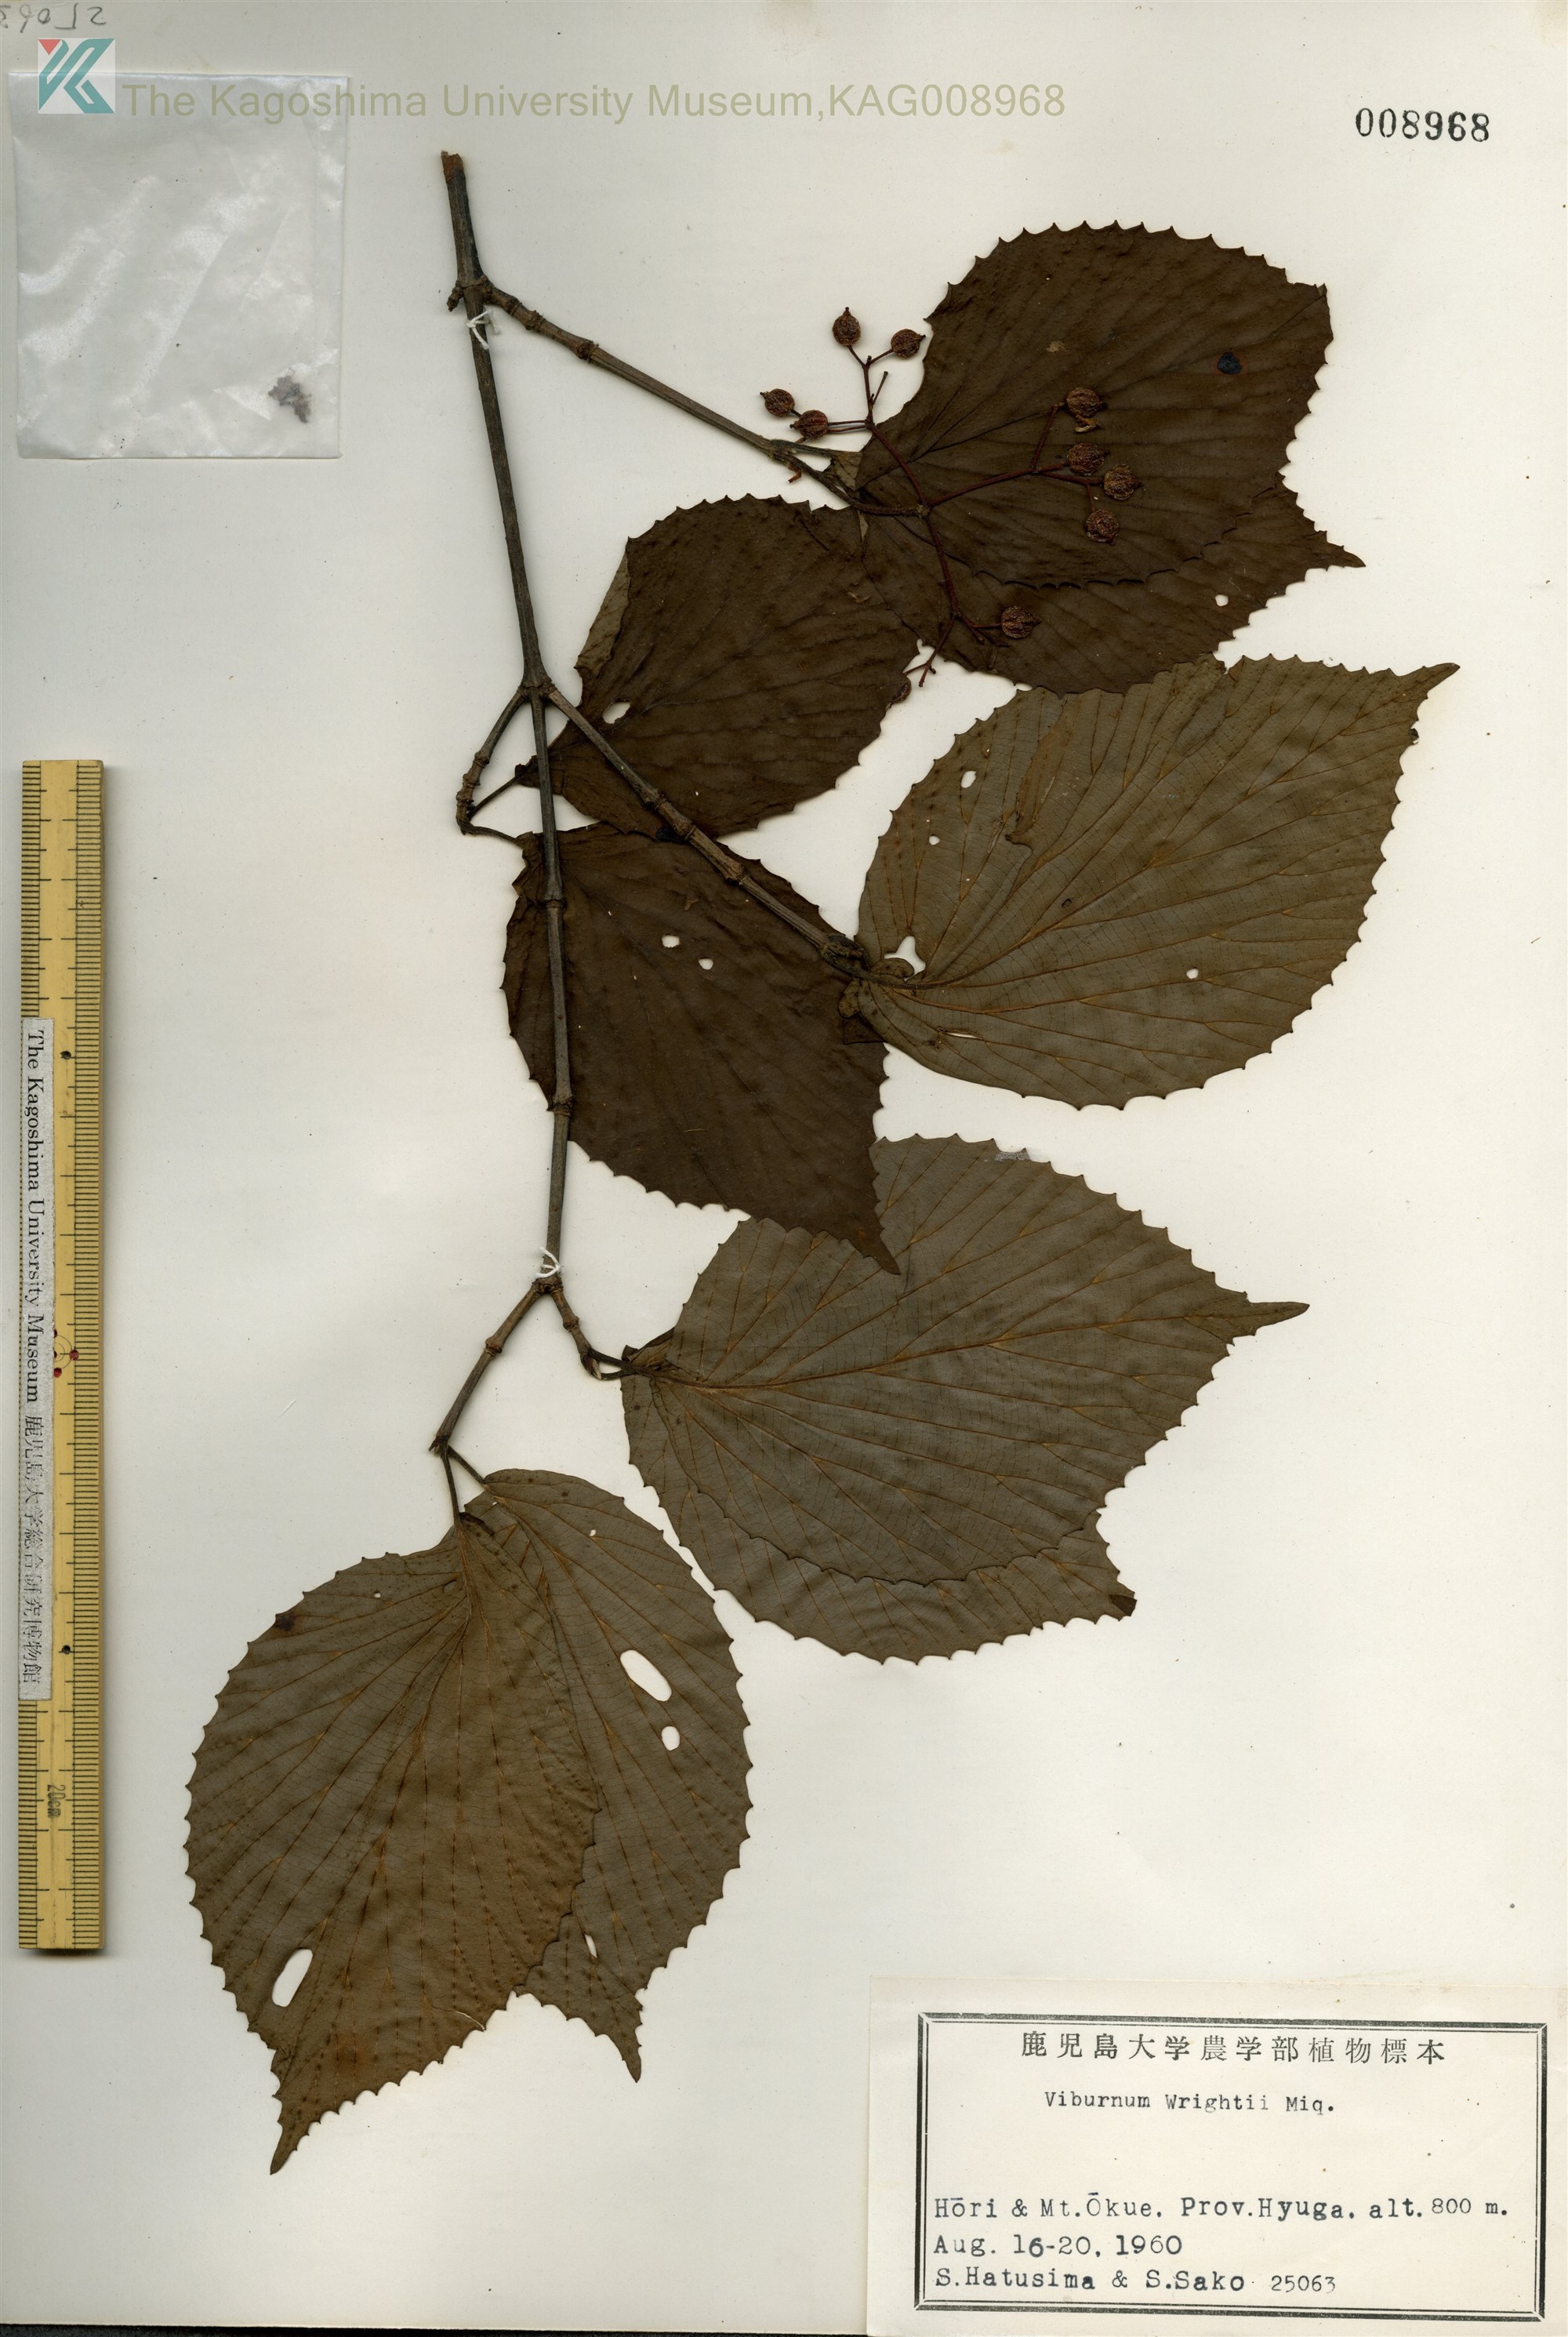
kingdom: Plantae
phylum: Tracheophyta
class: Magnoliopsida
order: Dipsacales
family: Viburnaceae
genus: Viburnum
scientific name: Viburnum wrightii
